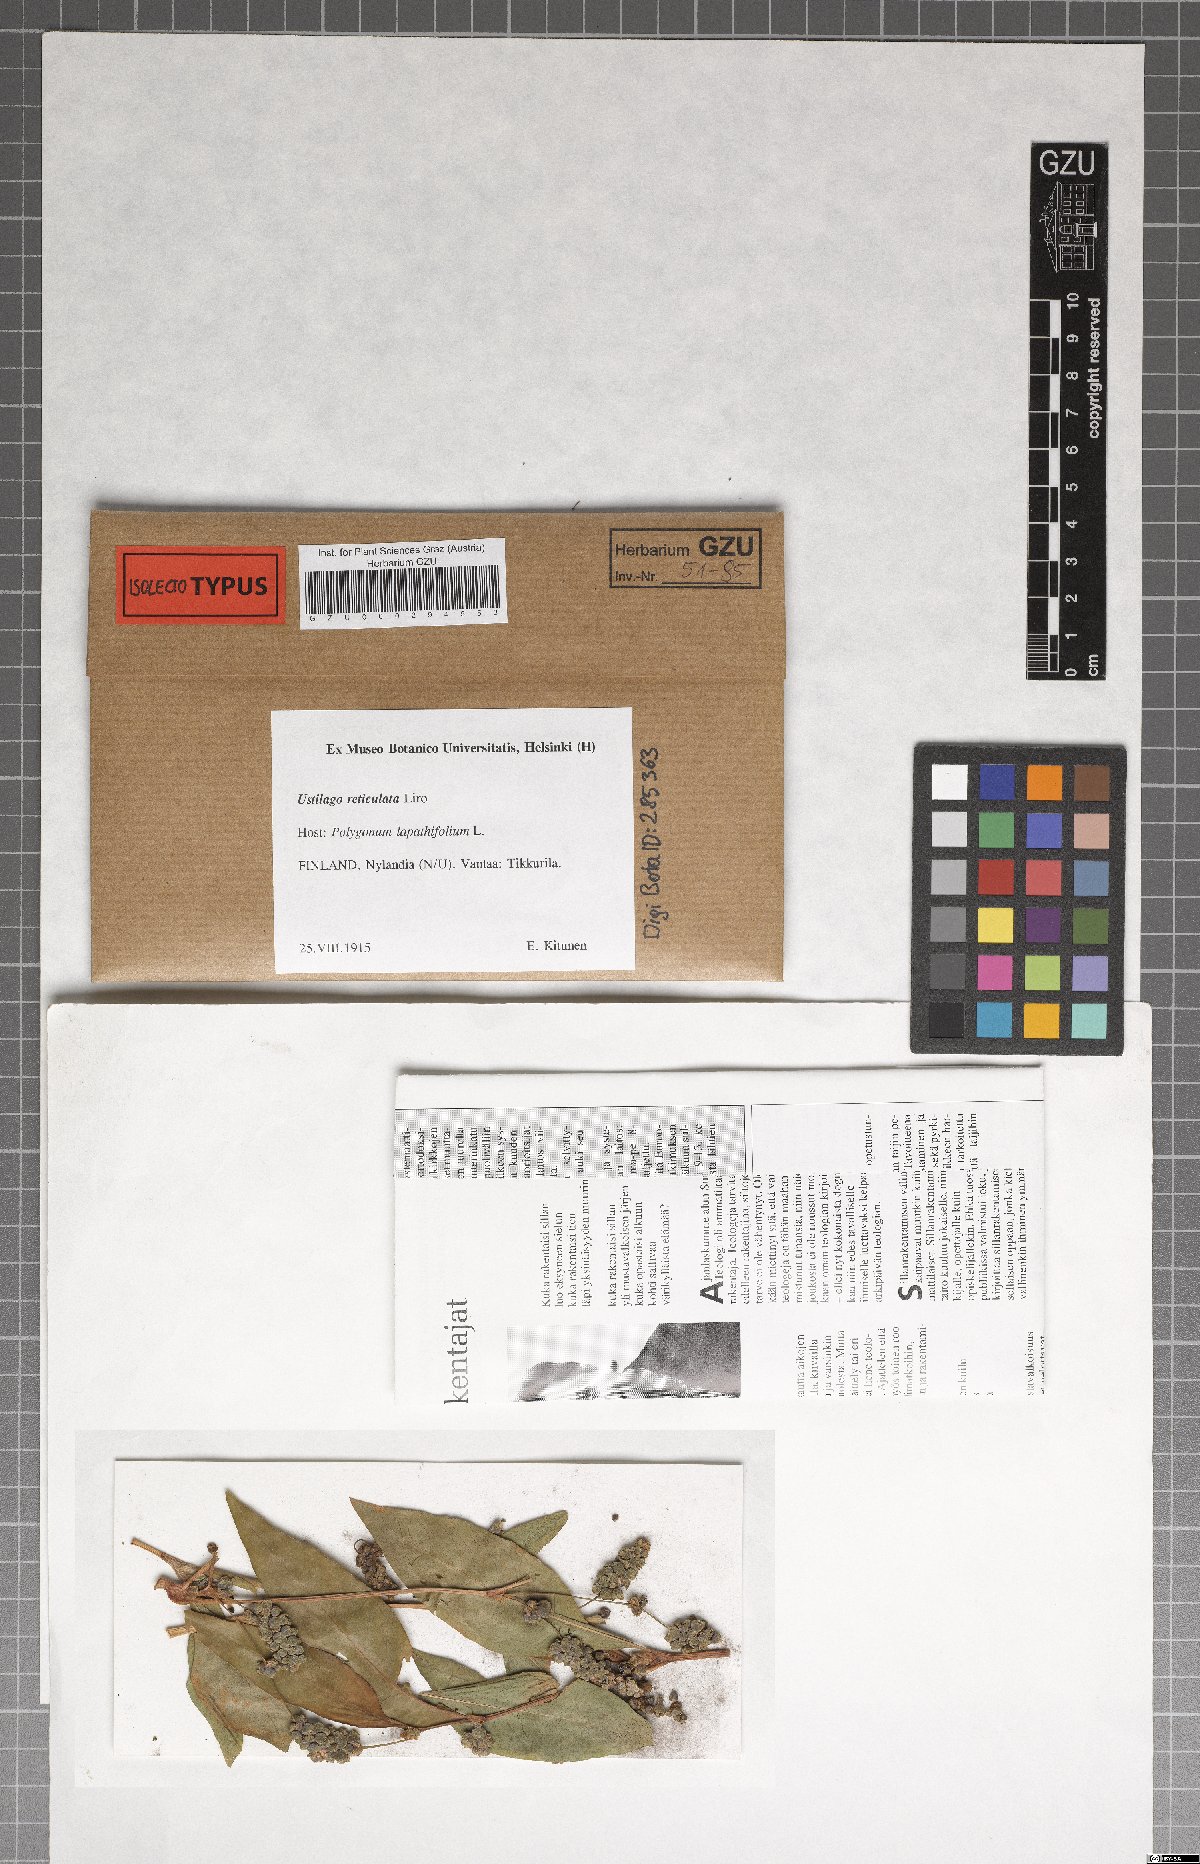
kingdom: Fungi
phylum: Basidiomycota
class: Microbotryomycetes
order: Microbotryales
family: Microbotryaceae
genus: Microbotryum
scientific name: Microbotryum reticulatum
